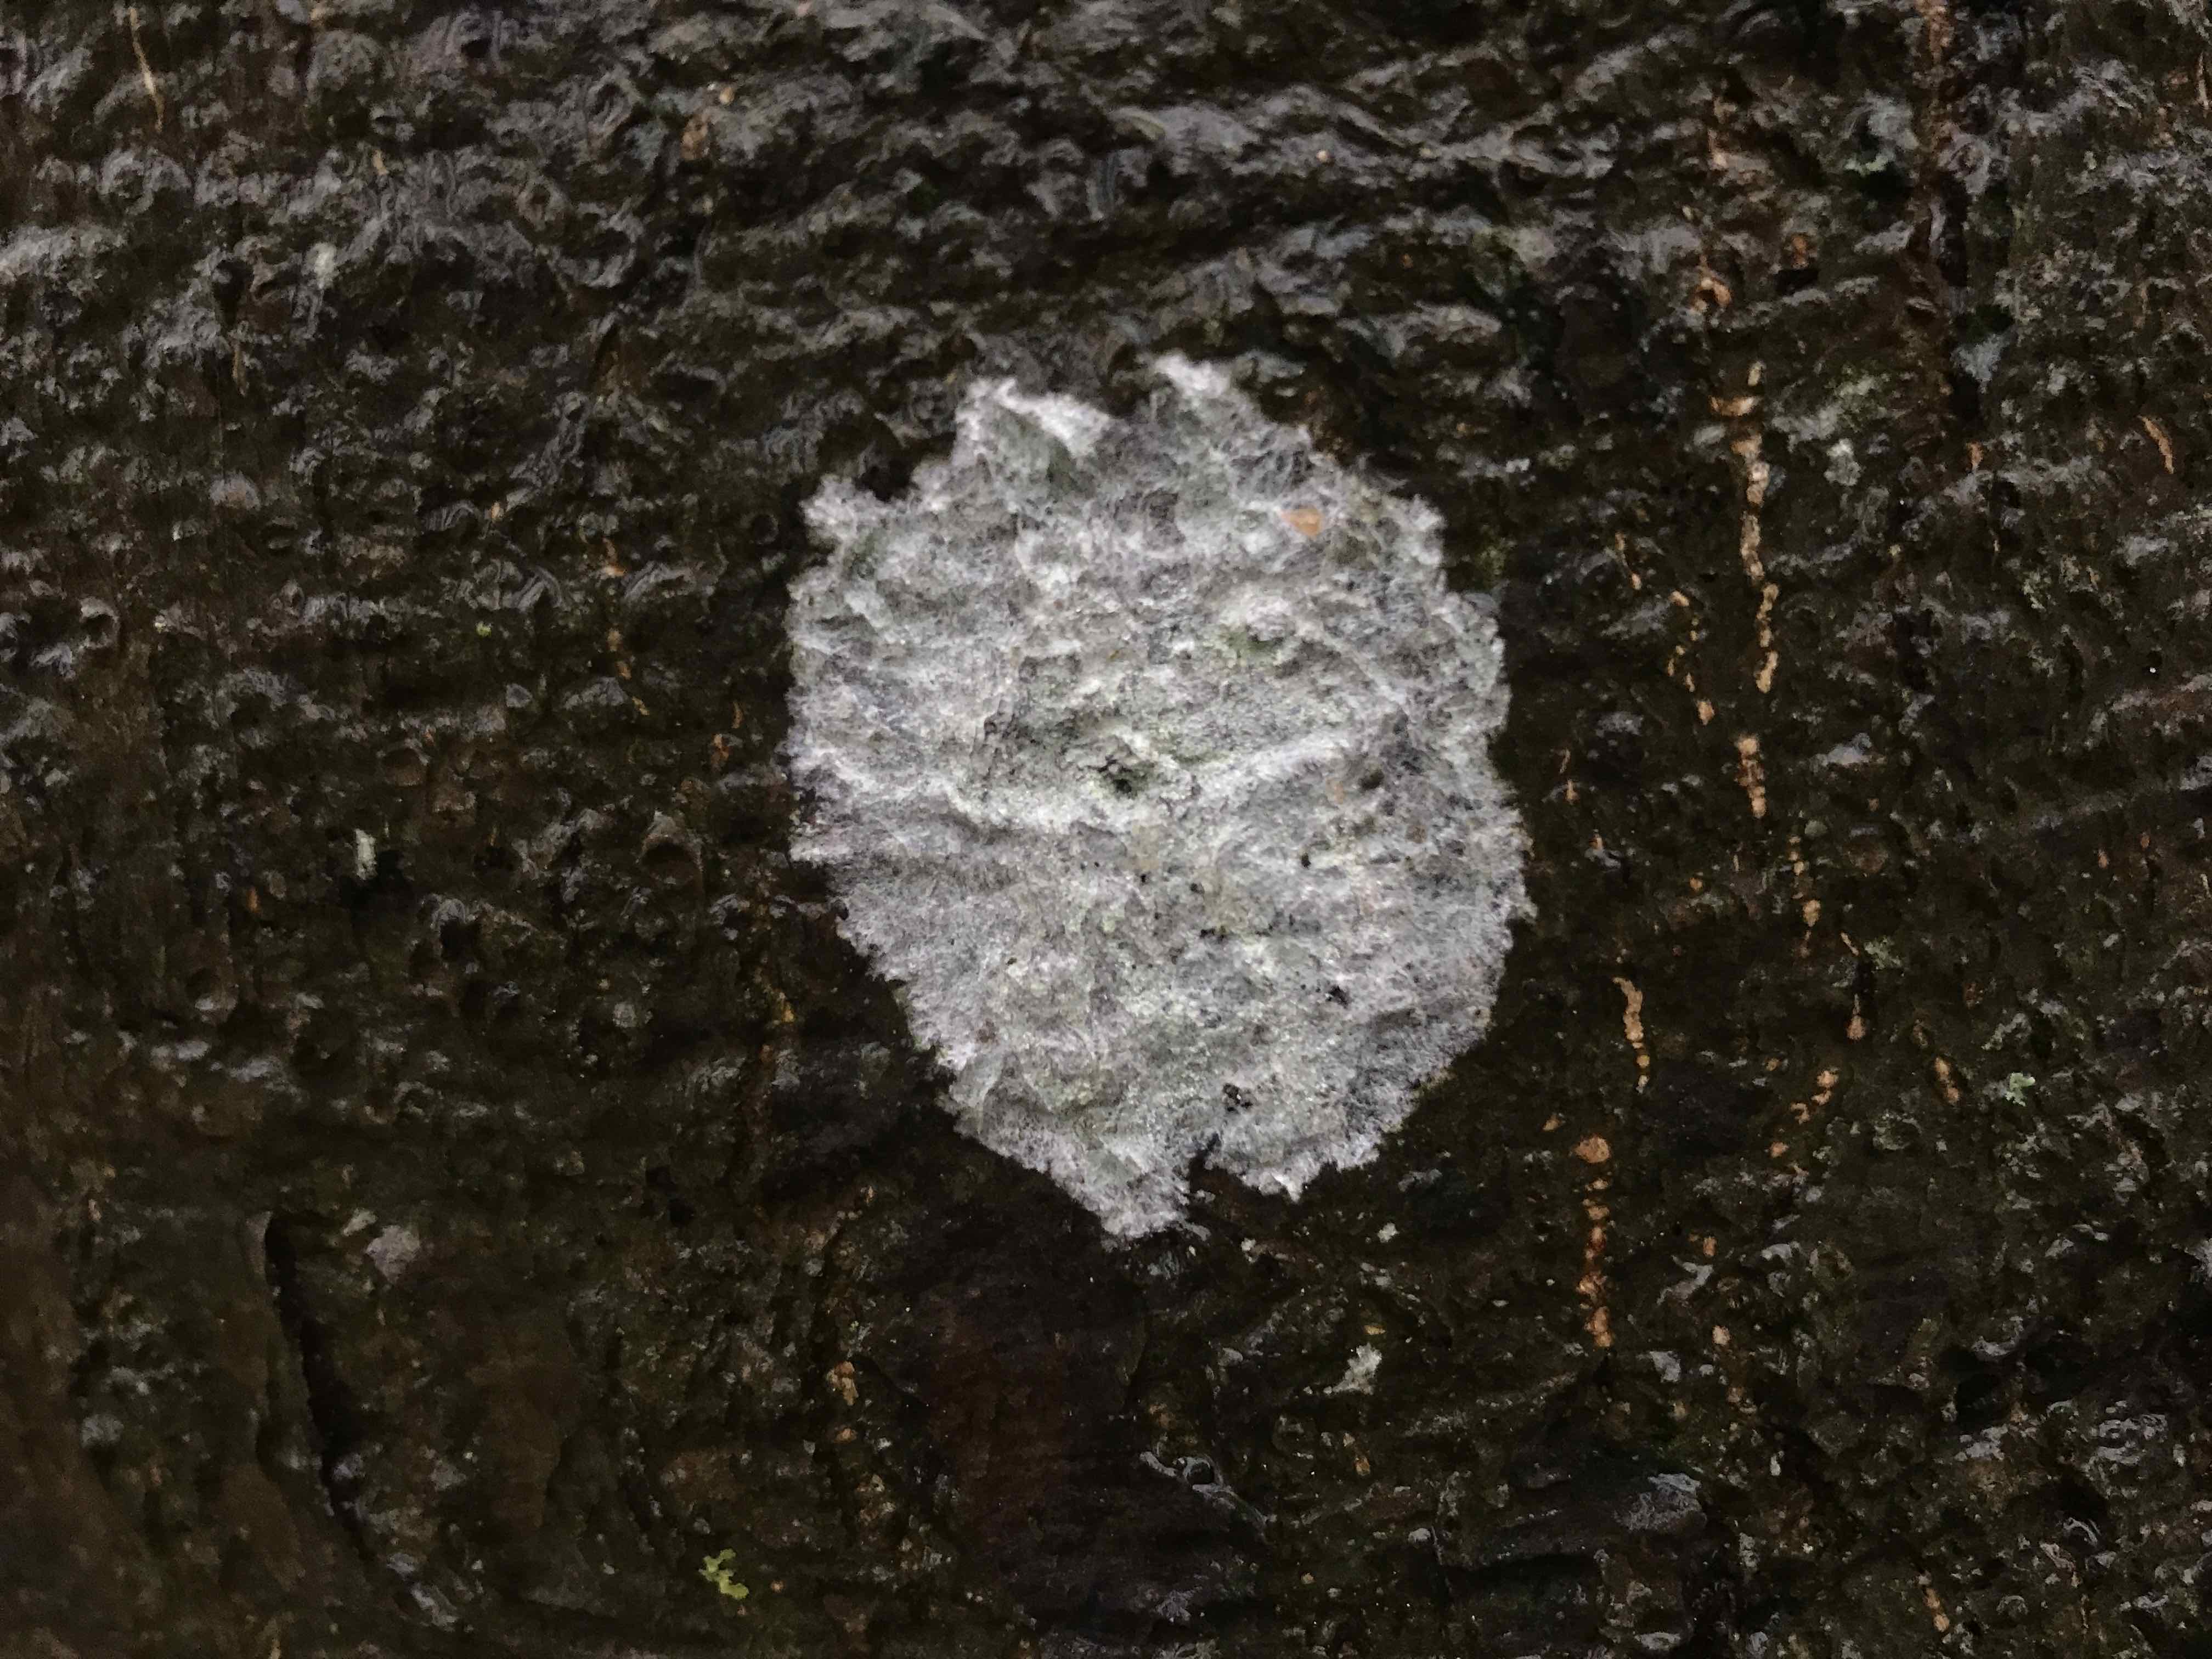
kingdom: Fungi
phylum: Ascomycota
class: Lecanoromycetes
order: Ostropales
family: Phlyctidaceae
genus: Phlyctis
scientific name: Phlyctis argena
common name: almindelig sølvlav
